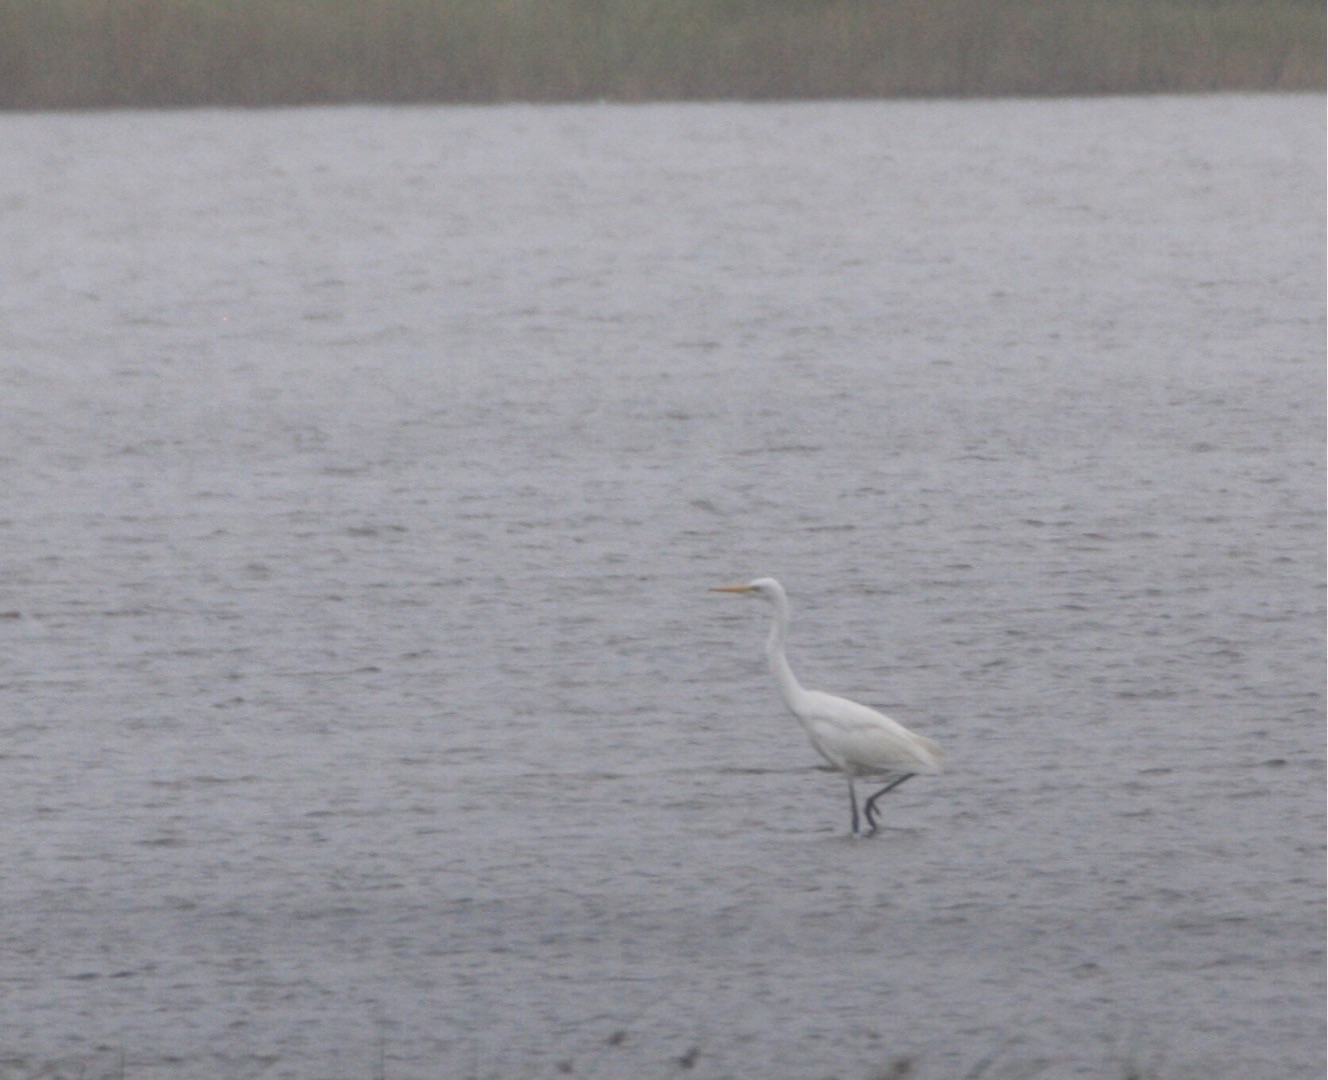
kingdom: Animalia
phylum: Chordata
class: Aves
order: Pelecaniformes
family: Ardeidae
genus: Ardea
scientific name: Ardea alba
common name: Sølvhejre
